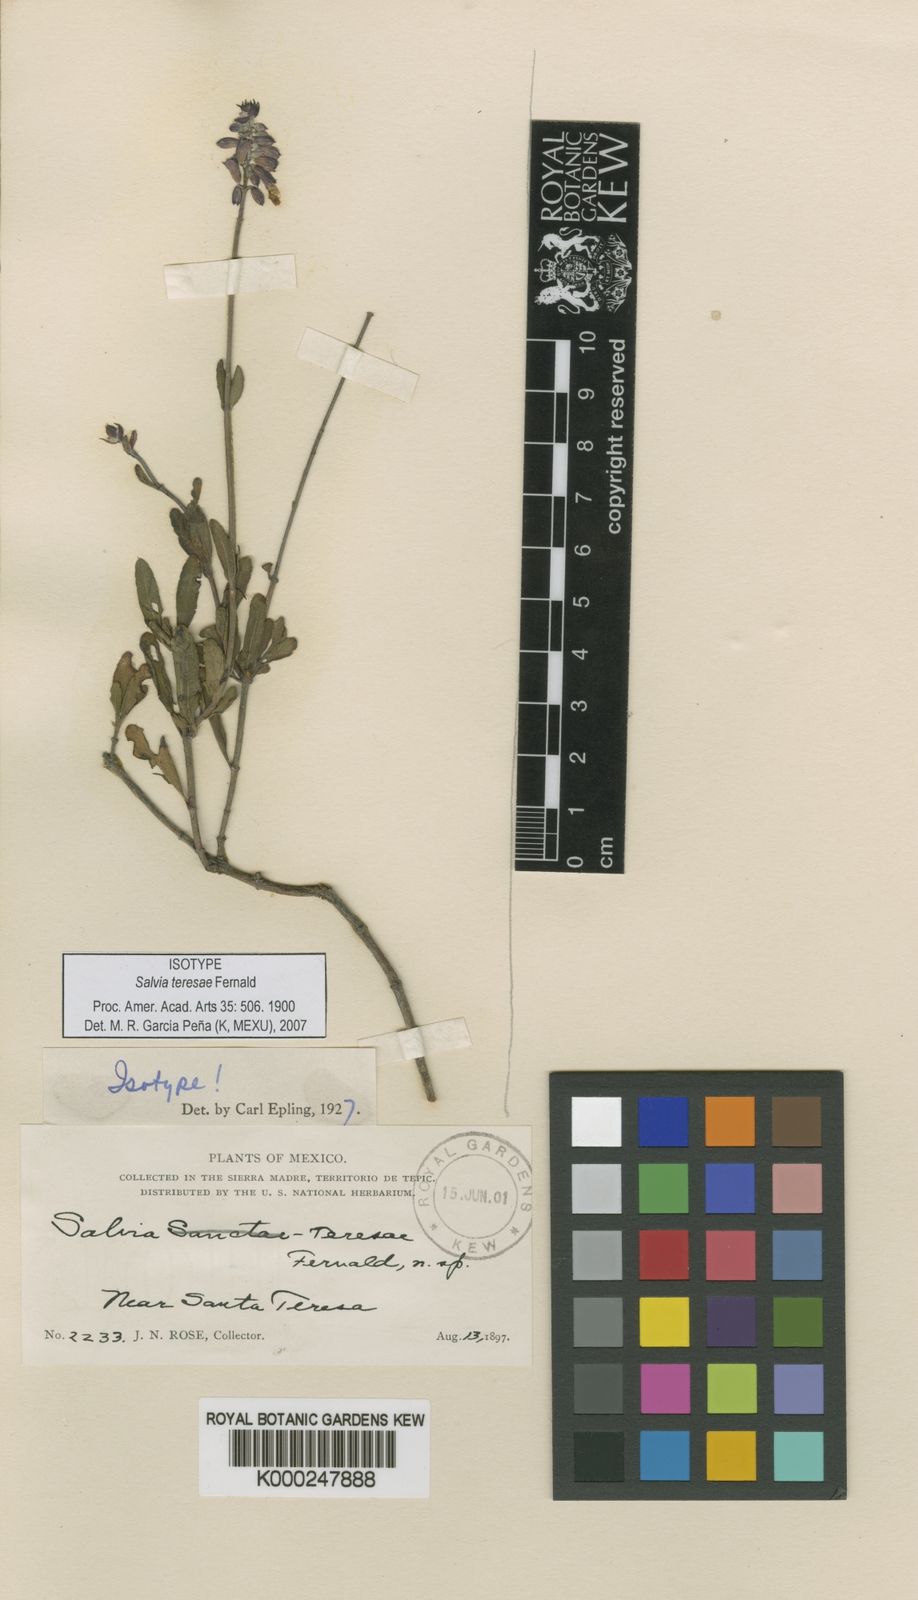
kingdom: Plantae
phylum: Tracheophyta
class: Magnoliopsida
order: Lamiales
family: Lamiaceae
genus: Salvia
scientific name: Salvia teresae
